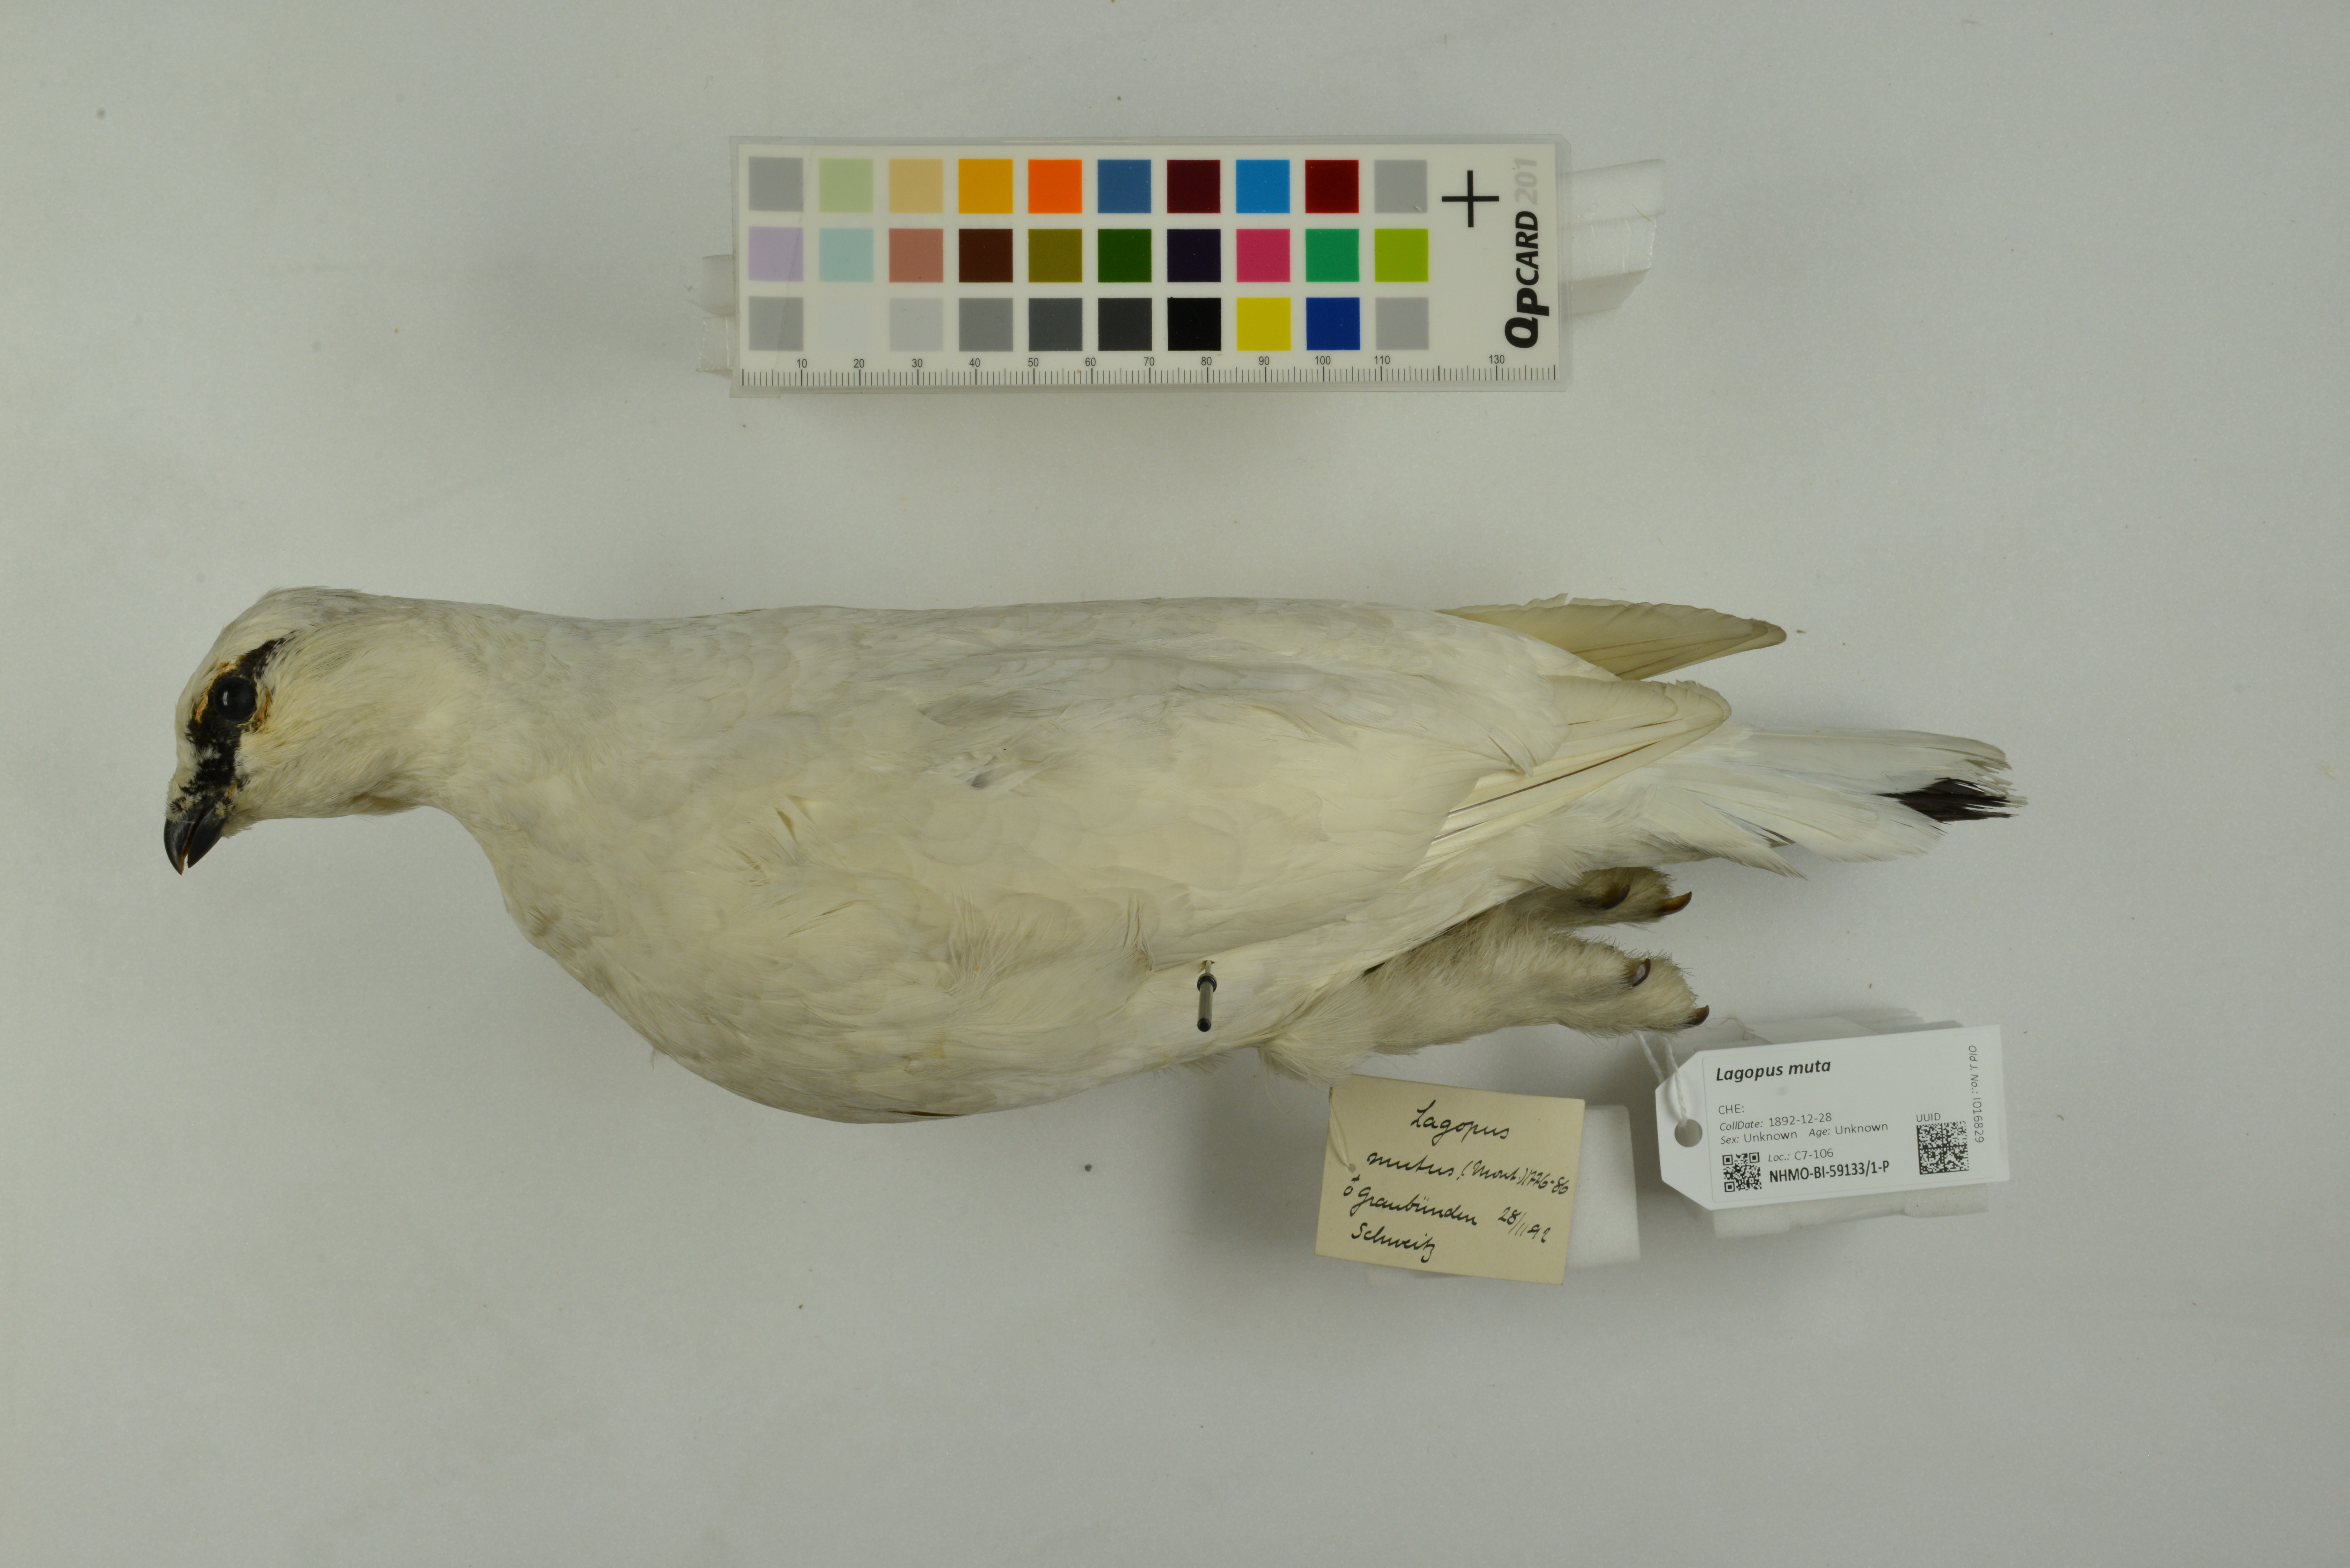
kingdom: Animalia
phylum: Chordata
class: Aves
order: Galliformes
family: Phasianidae
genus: Lagopus
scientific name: Lagopus muta
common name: Rock ptarmigan
